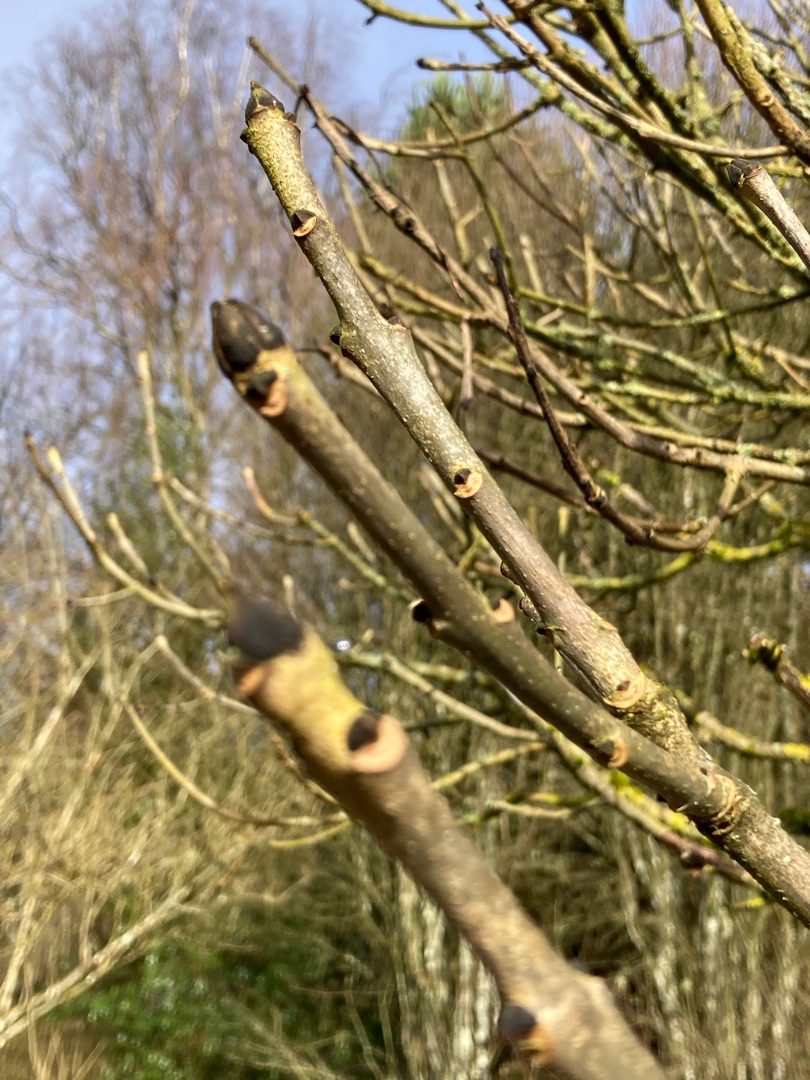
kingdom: Plantae
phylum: Tracheophyta
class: Magnoliopsida
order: Lamiales
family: Oleaceae
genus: Fraxinus
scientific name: Fraxinus excelsior
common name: Ask
